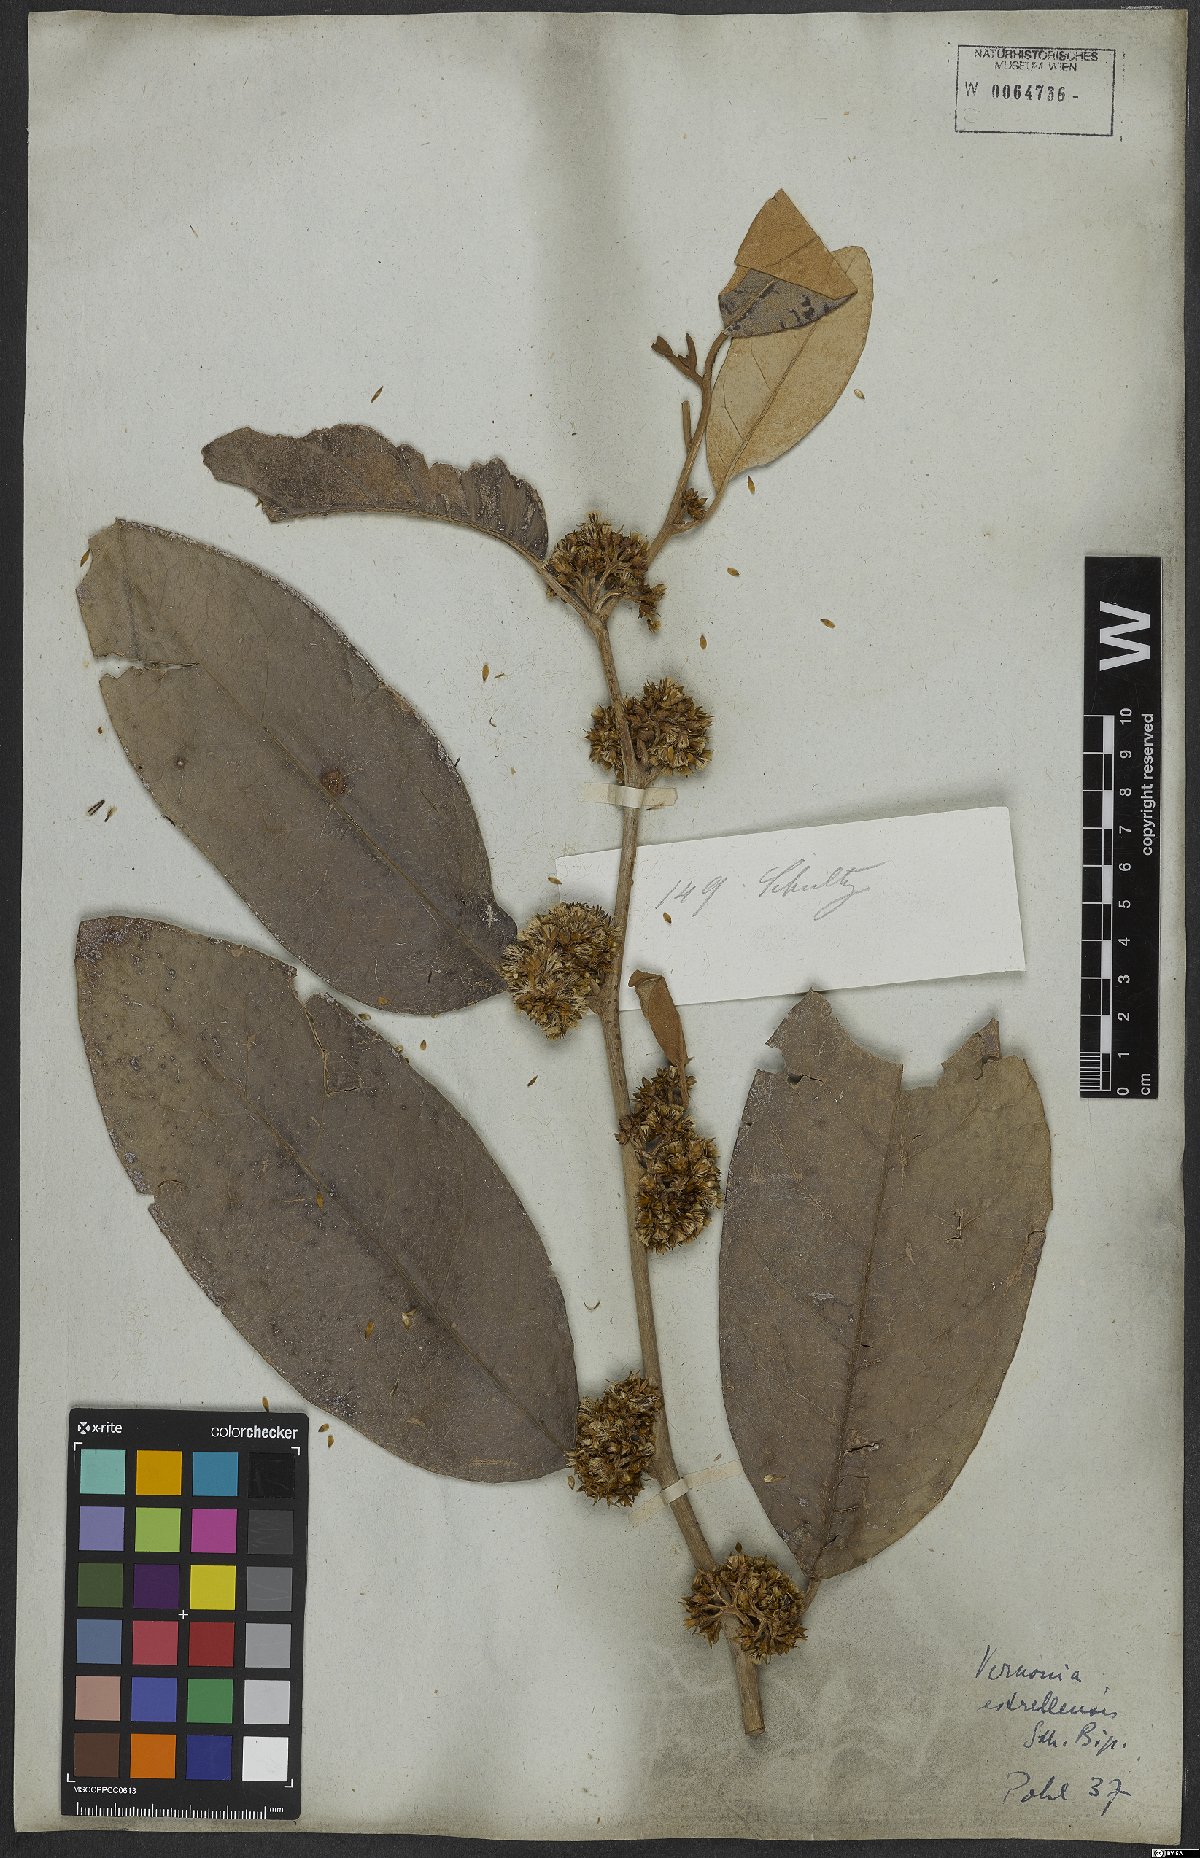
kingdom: Plantae
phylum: Tracheophyta
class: Magnoliopsida
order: Asterales
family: Asteraceae
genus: Vernonanthura
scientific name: Vernonanthura puberula
